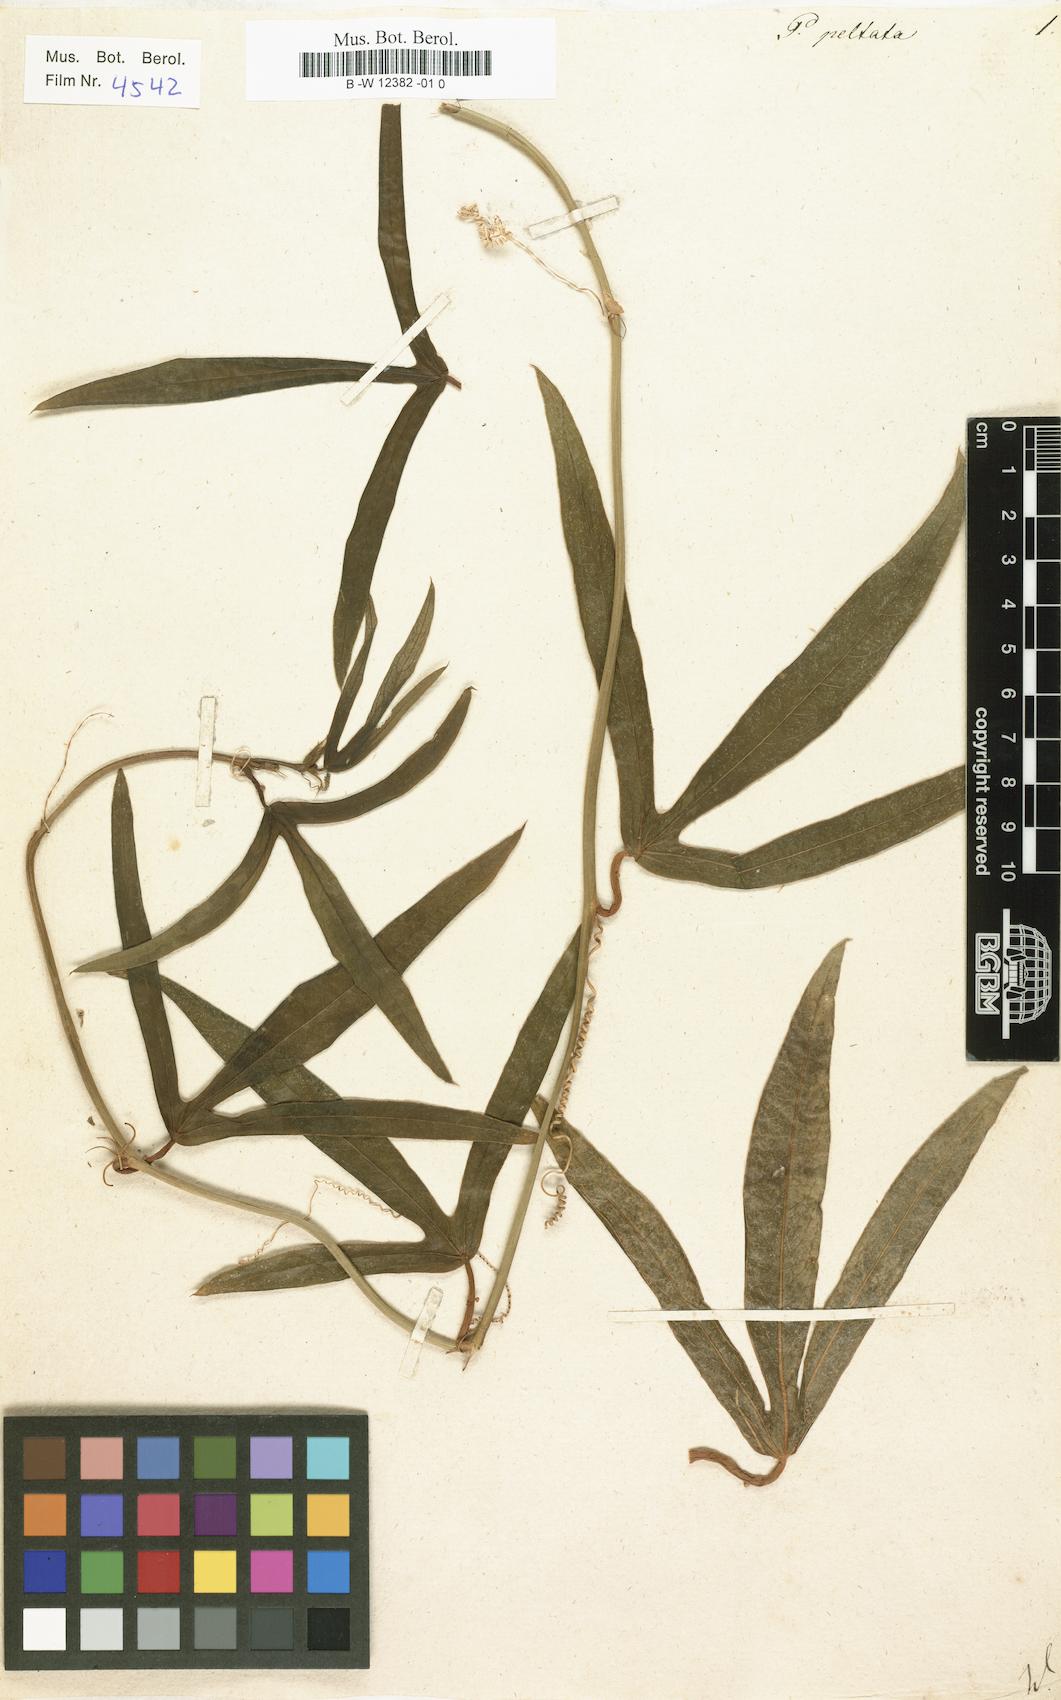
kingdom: Plantae
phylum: Tracheophyta
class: Magnoliopsida
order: Malpighiales
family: Passifloraceae
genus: Passiflora
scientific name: Passiflora suberosa
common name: Wild passionfruit
